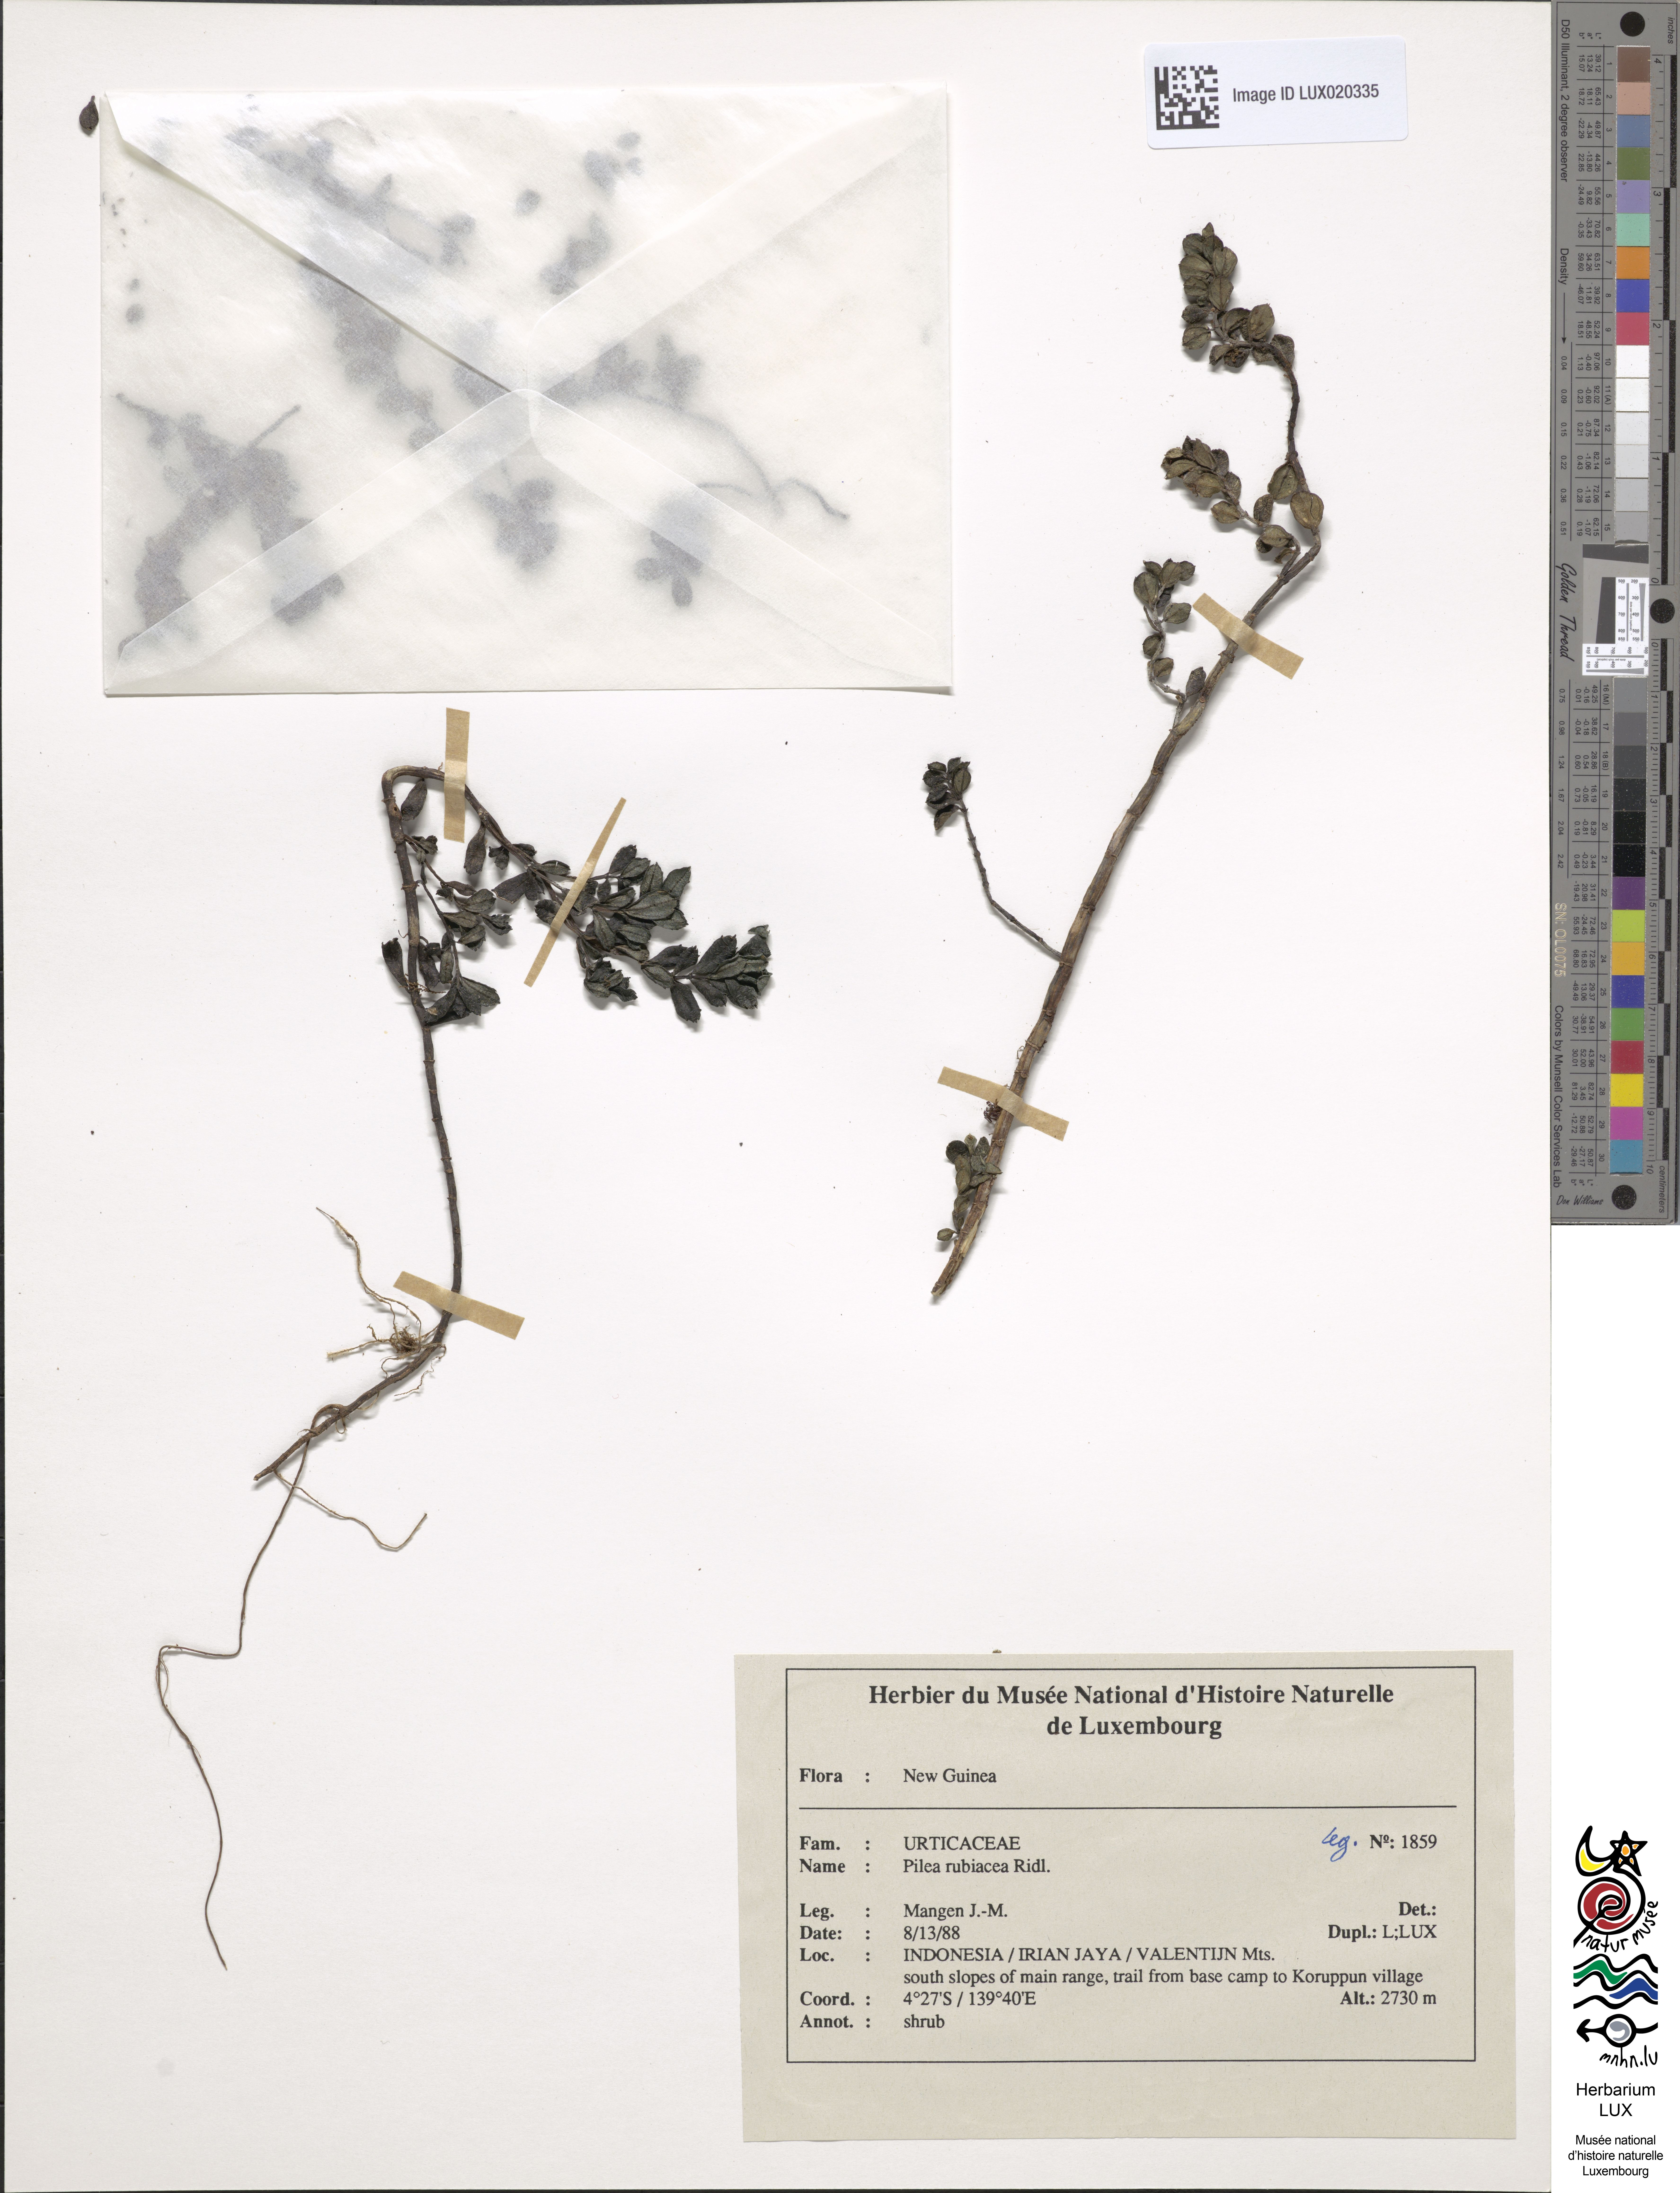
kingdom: Plantae
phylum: Tracheophyta
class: Magnoliopsida
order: Rosales
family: Urticaceae
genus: Pilea
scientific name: Pilea rubiacea
